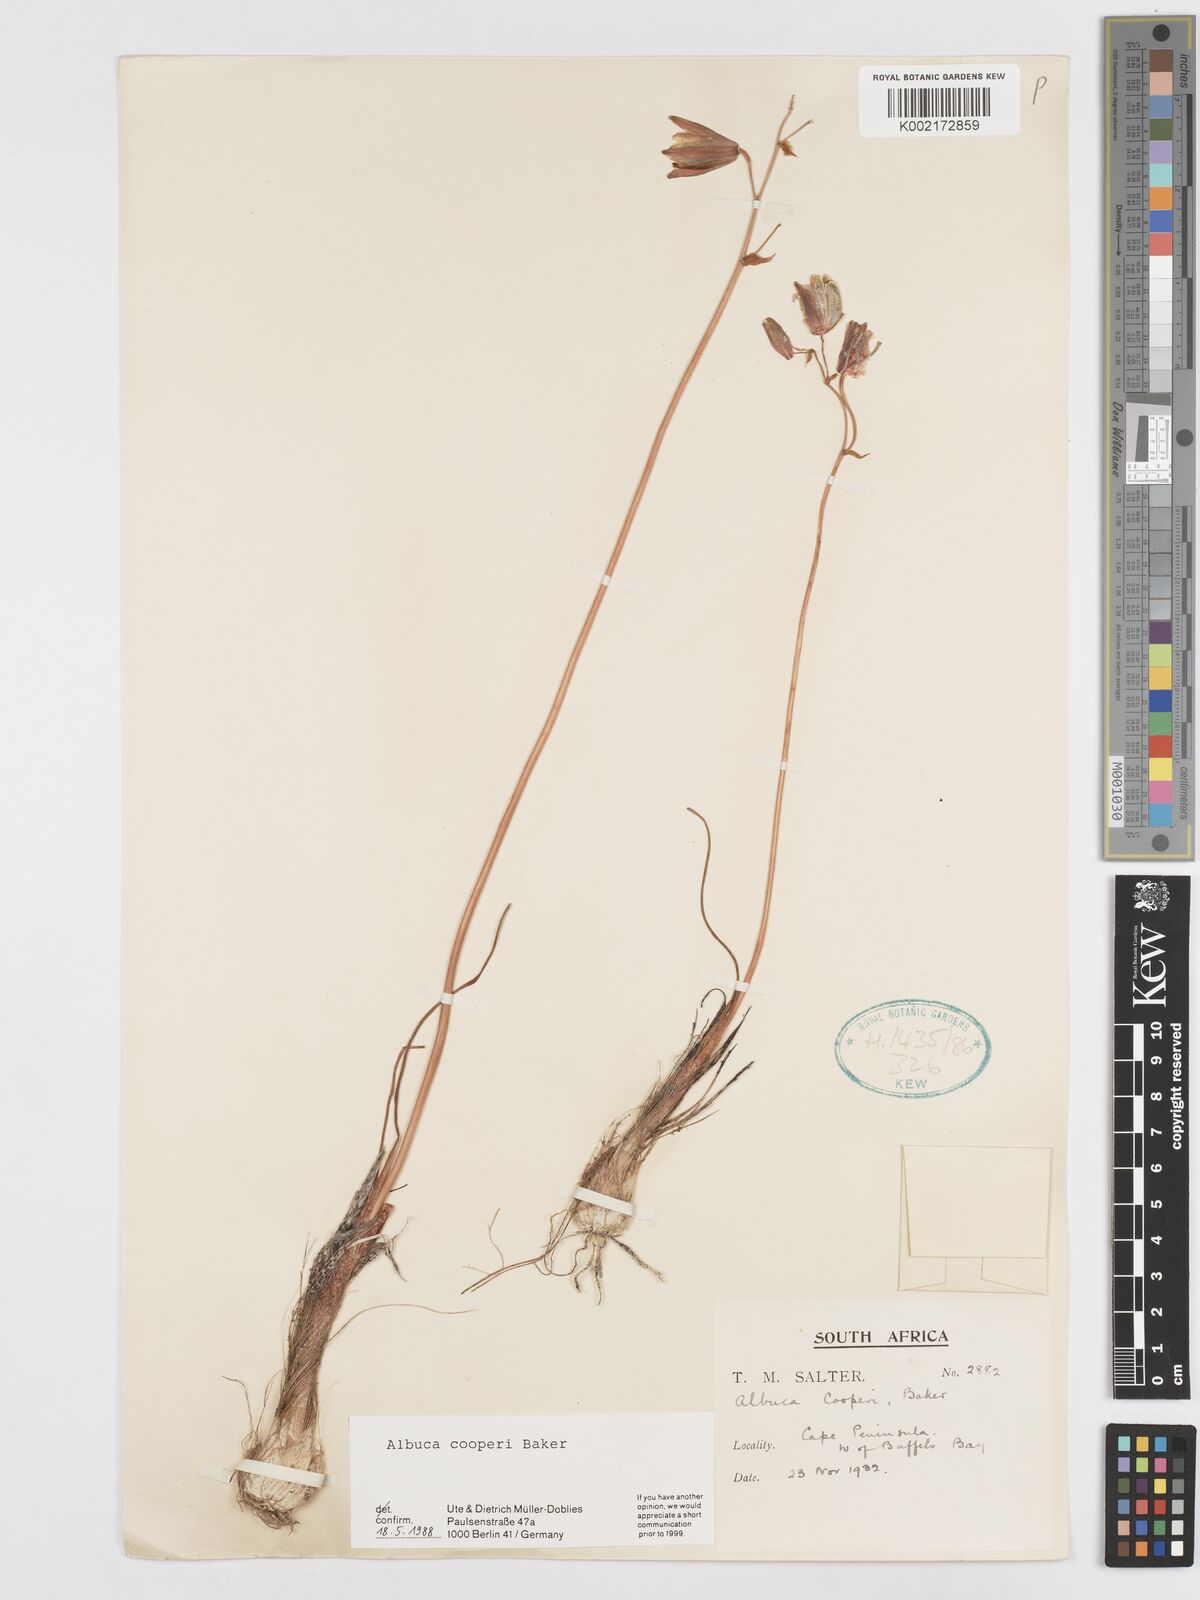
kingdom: Plantae
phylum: Tracheophyta
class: Liliopsida
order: Asparagales
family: Asparagaceae
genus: Albuca
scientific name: Albuca cooperi
